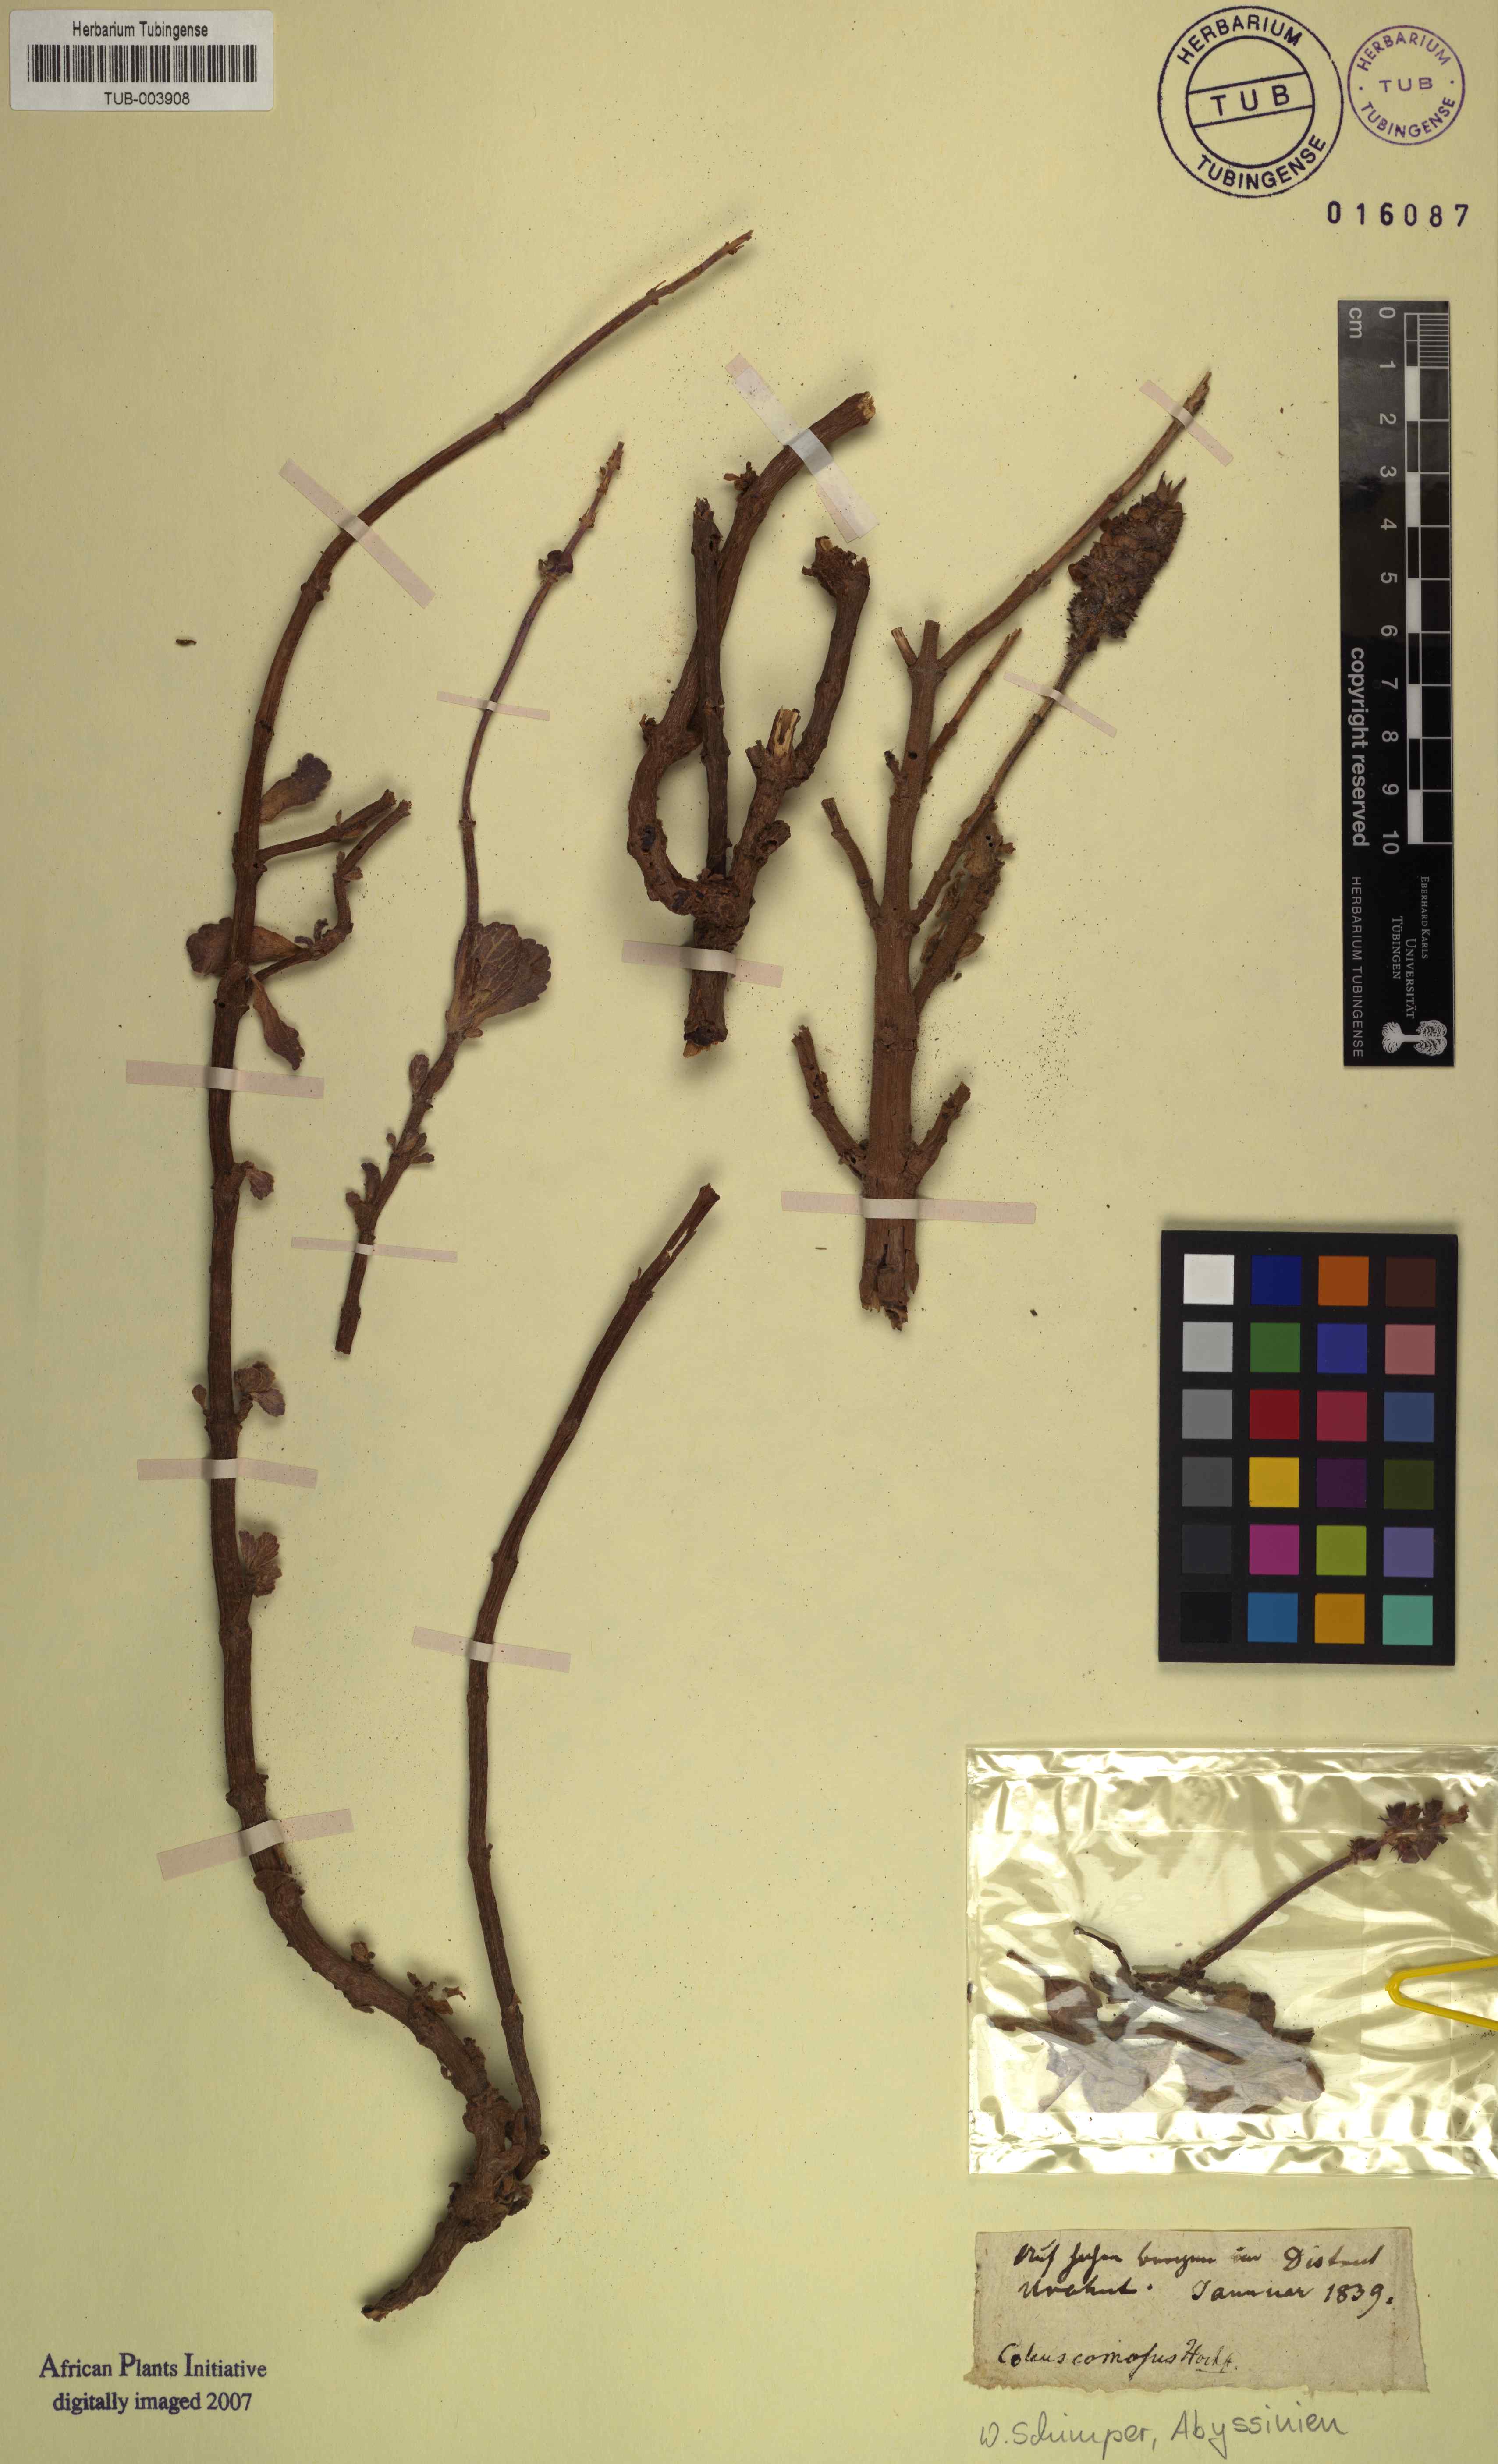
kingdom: Plantae
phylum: Tracheophyta
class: Magnoliopsida
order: Lamiales
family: Lamiaceae
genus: Coleus
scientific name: Coleus caninus
